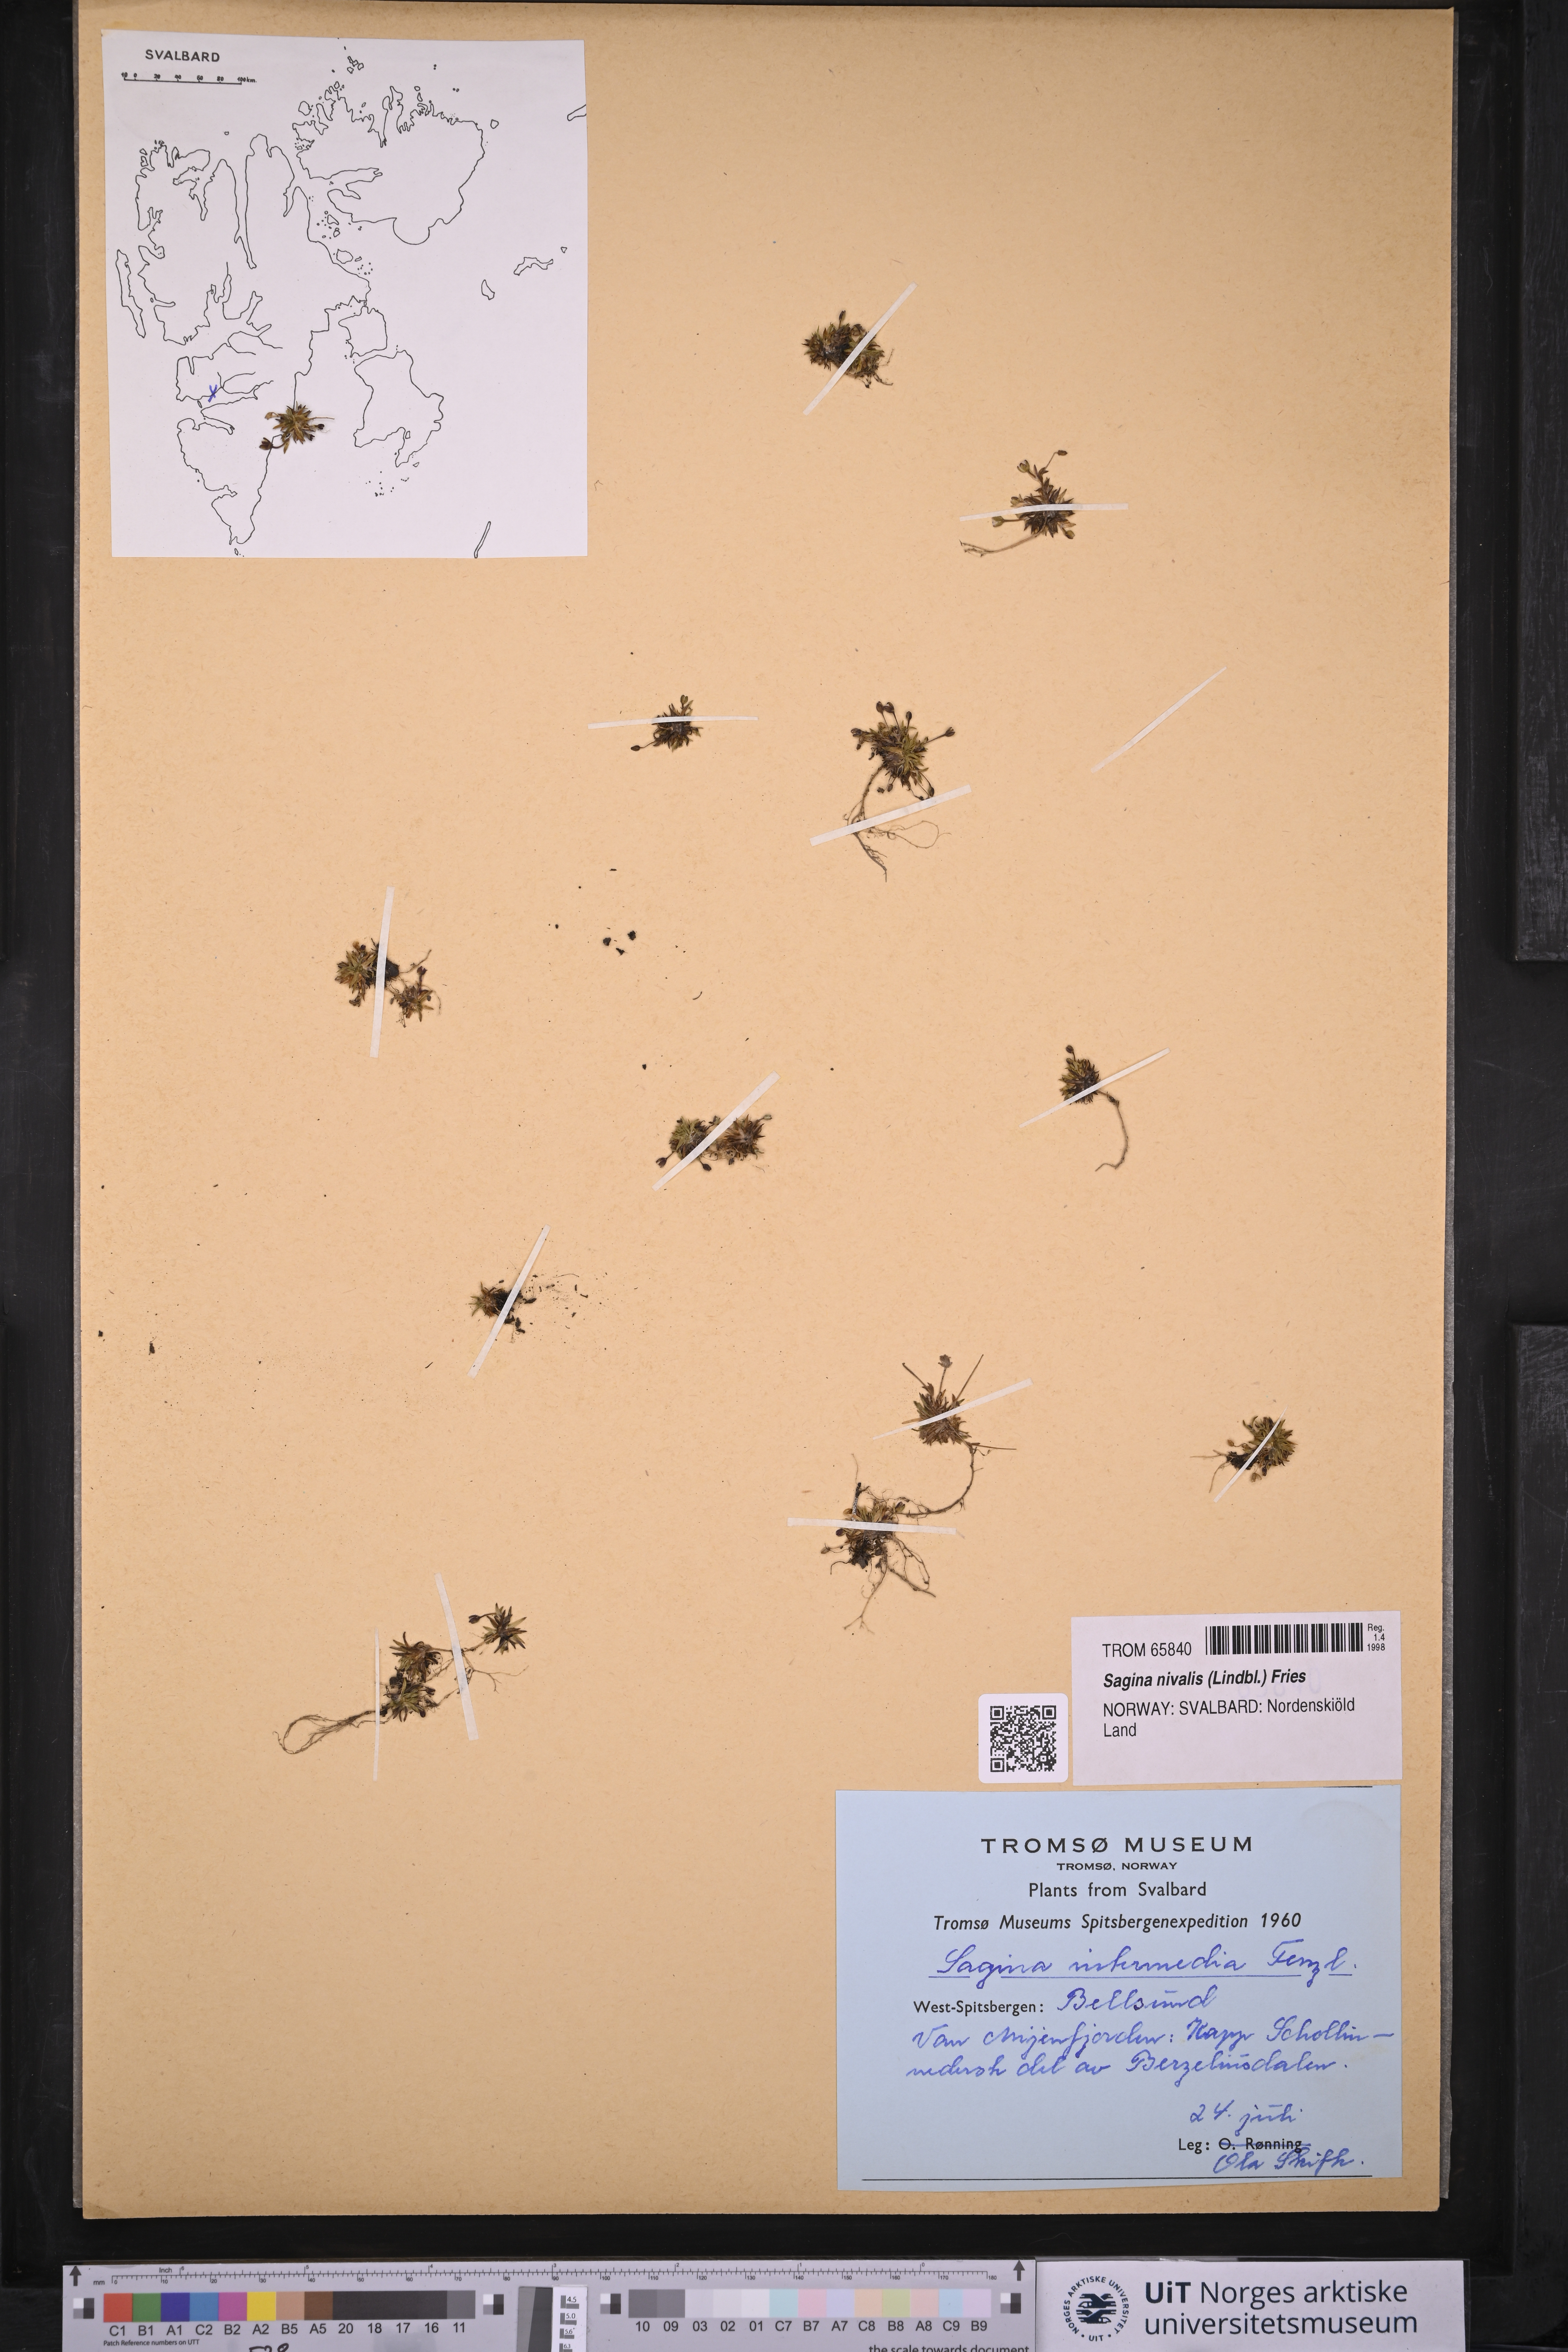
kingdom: Plantae
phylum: Tracheophyta
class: Magnoliopsida
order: Caryophyllales
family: Caryophyllaceae
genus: Sagina
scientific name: Sagina nivalis
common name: Snow pearlwort
